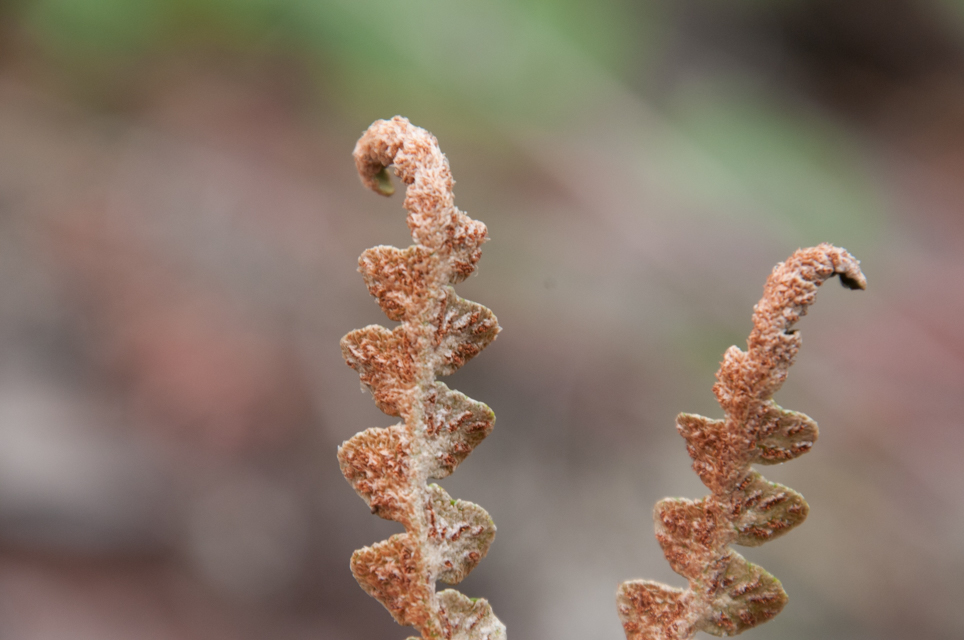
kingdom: Plantae
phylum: Tracheophyta
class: Polypodiopsida
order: Polypodiales
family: Aspleniaceae
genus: Asplenium
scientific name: Asplenium ceterach
